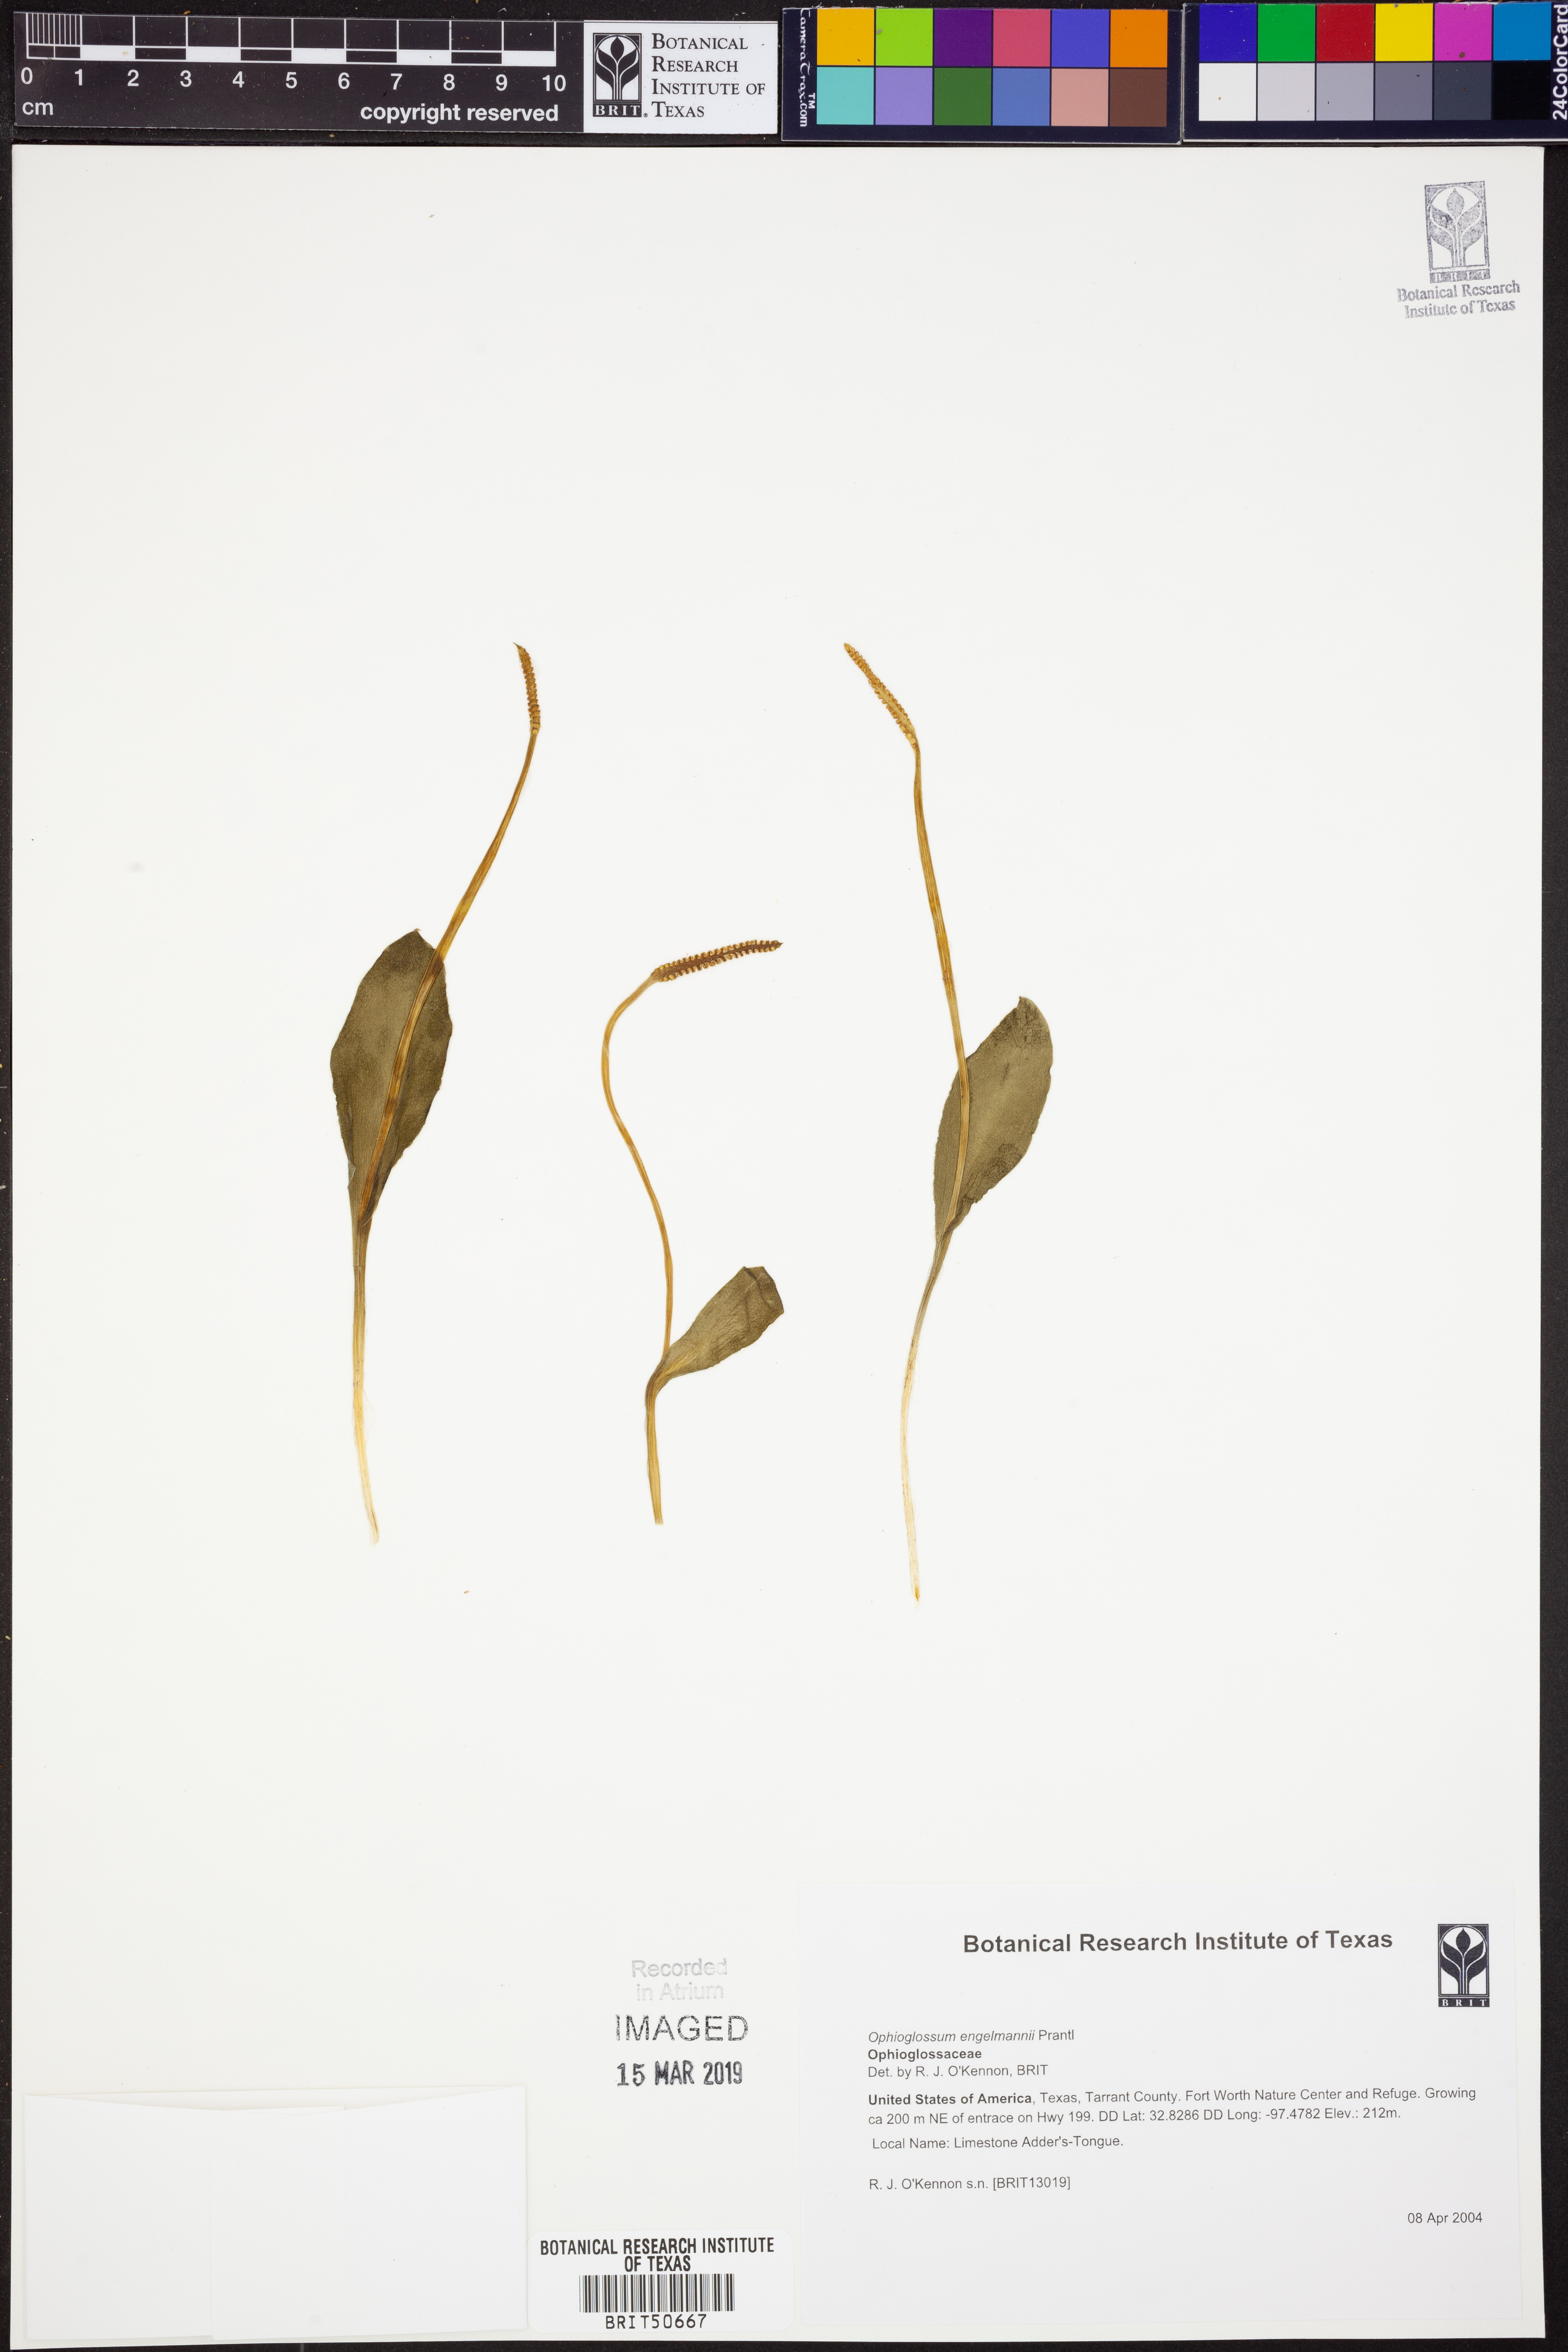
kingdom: Plantae
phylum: Tracheophyta
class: Polypodiopsida
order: Ophioglossales
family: Ophioglossaceae
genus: Ophioglossum
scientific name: Ophioglossum engelmannii
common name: Limestone adder's-tongue
